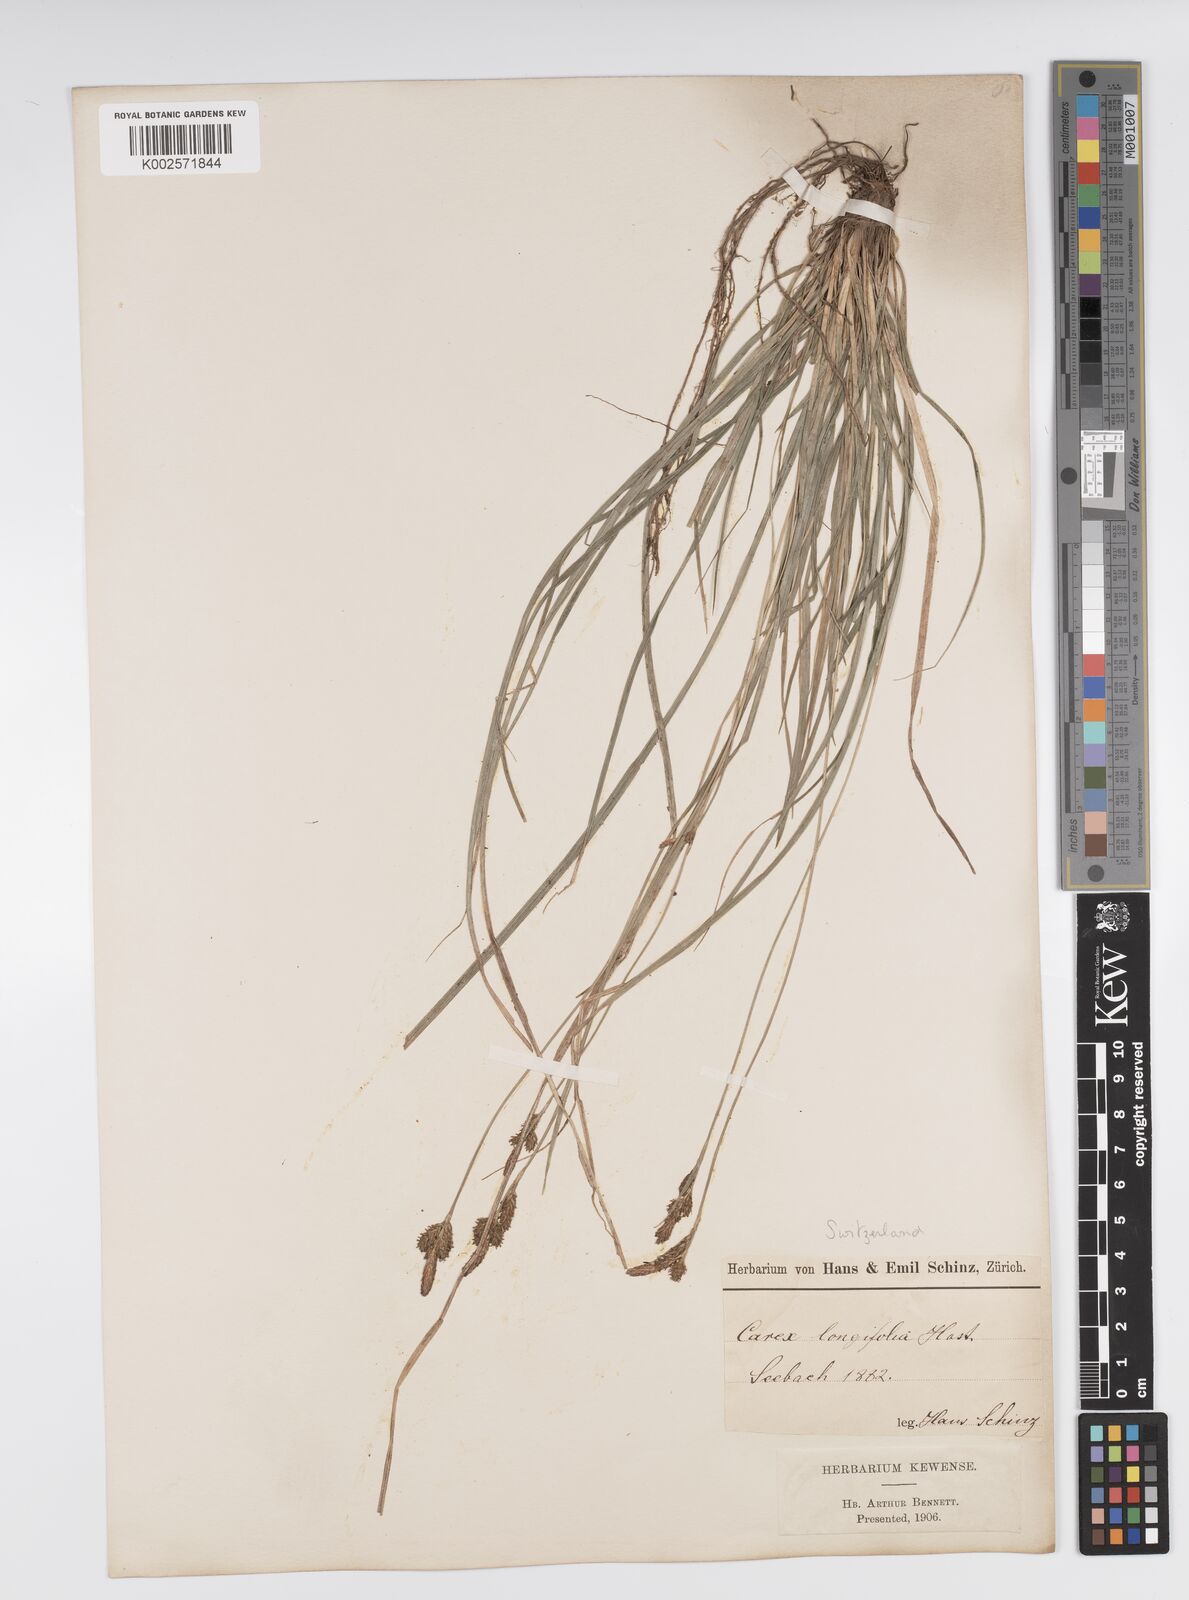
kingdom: Plantae
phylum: Tracheophyta
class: Liliopsida
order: Poales
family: Cyperaceae
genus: Carex
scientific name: Carex umbrosa
